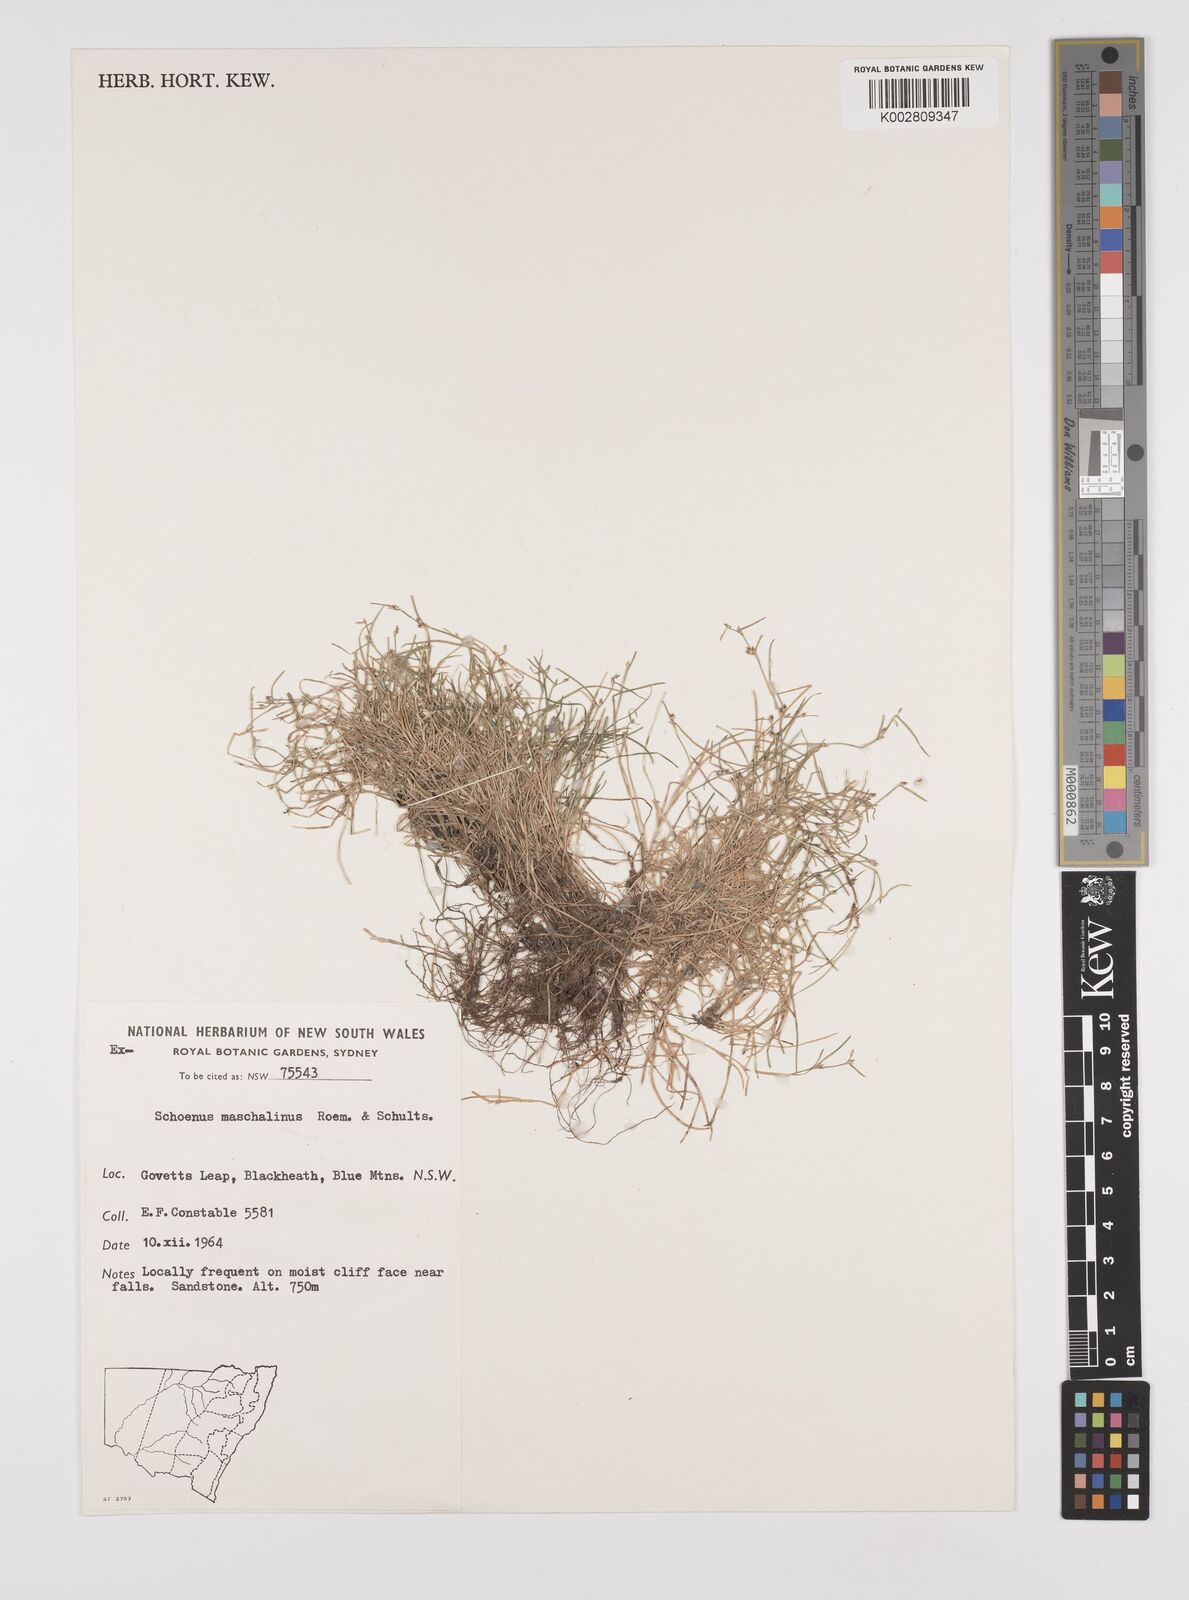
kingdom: Plantae
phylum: Tracheophyta
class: Liliopsida
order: Poales
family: Cyperaceae
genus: Schoenus
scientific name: Schoenus maschalinus
